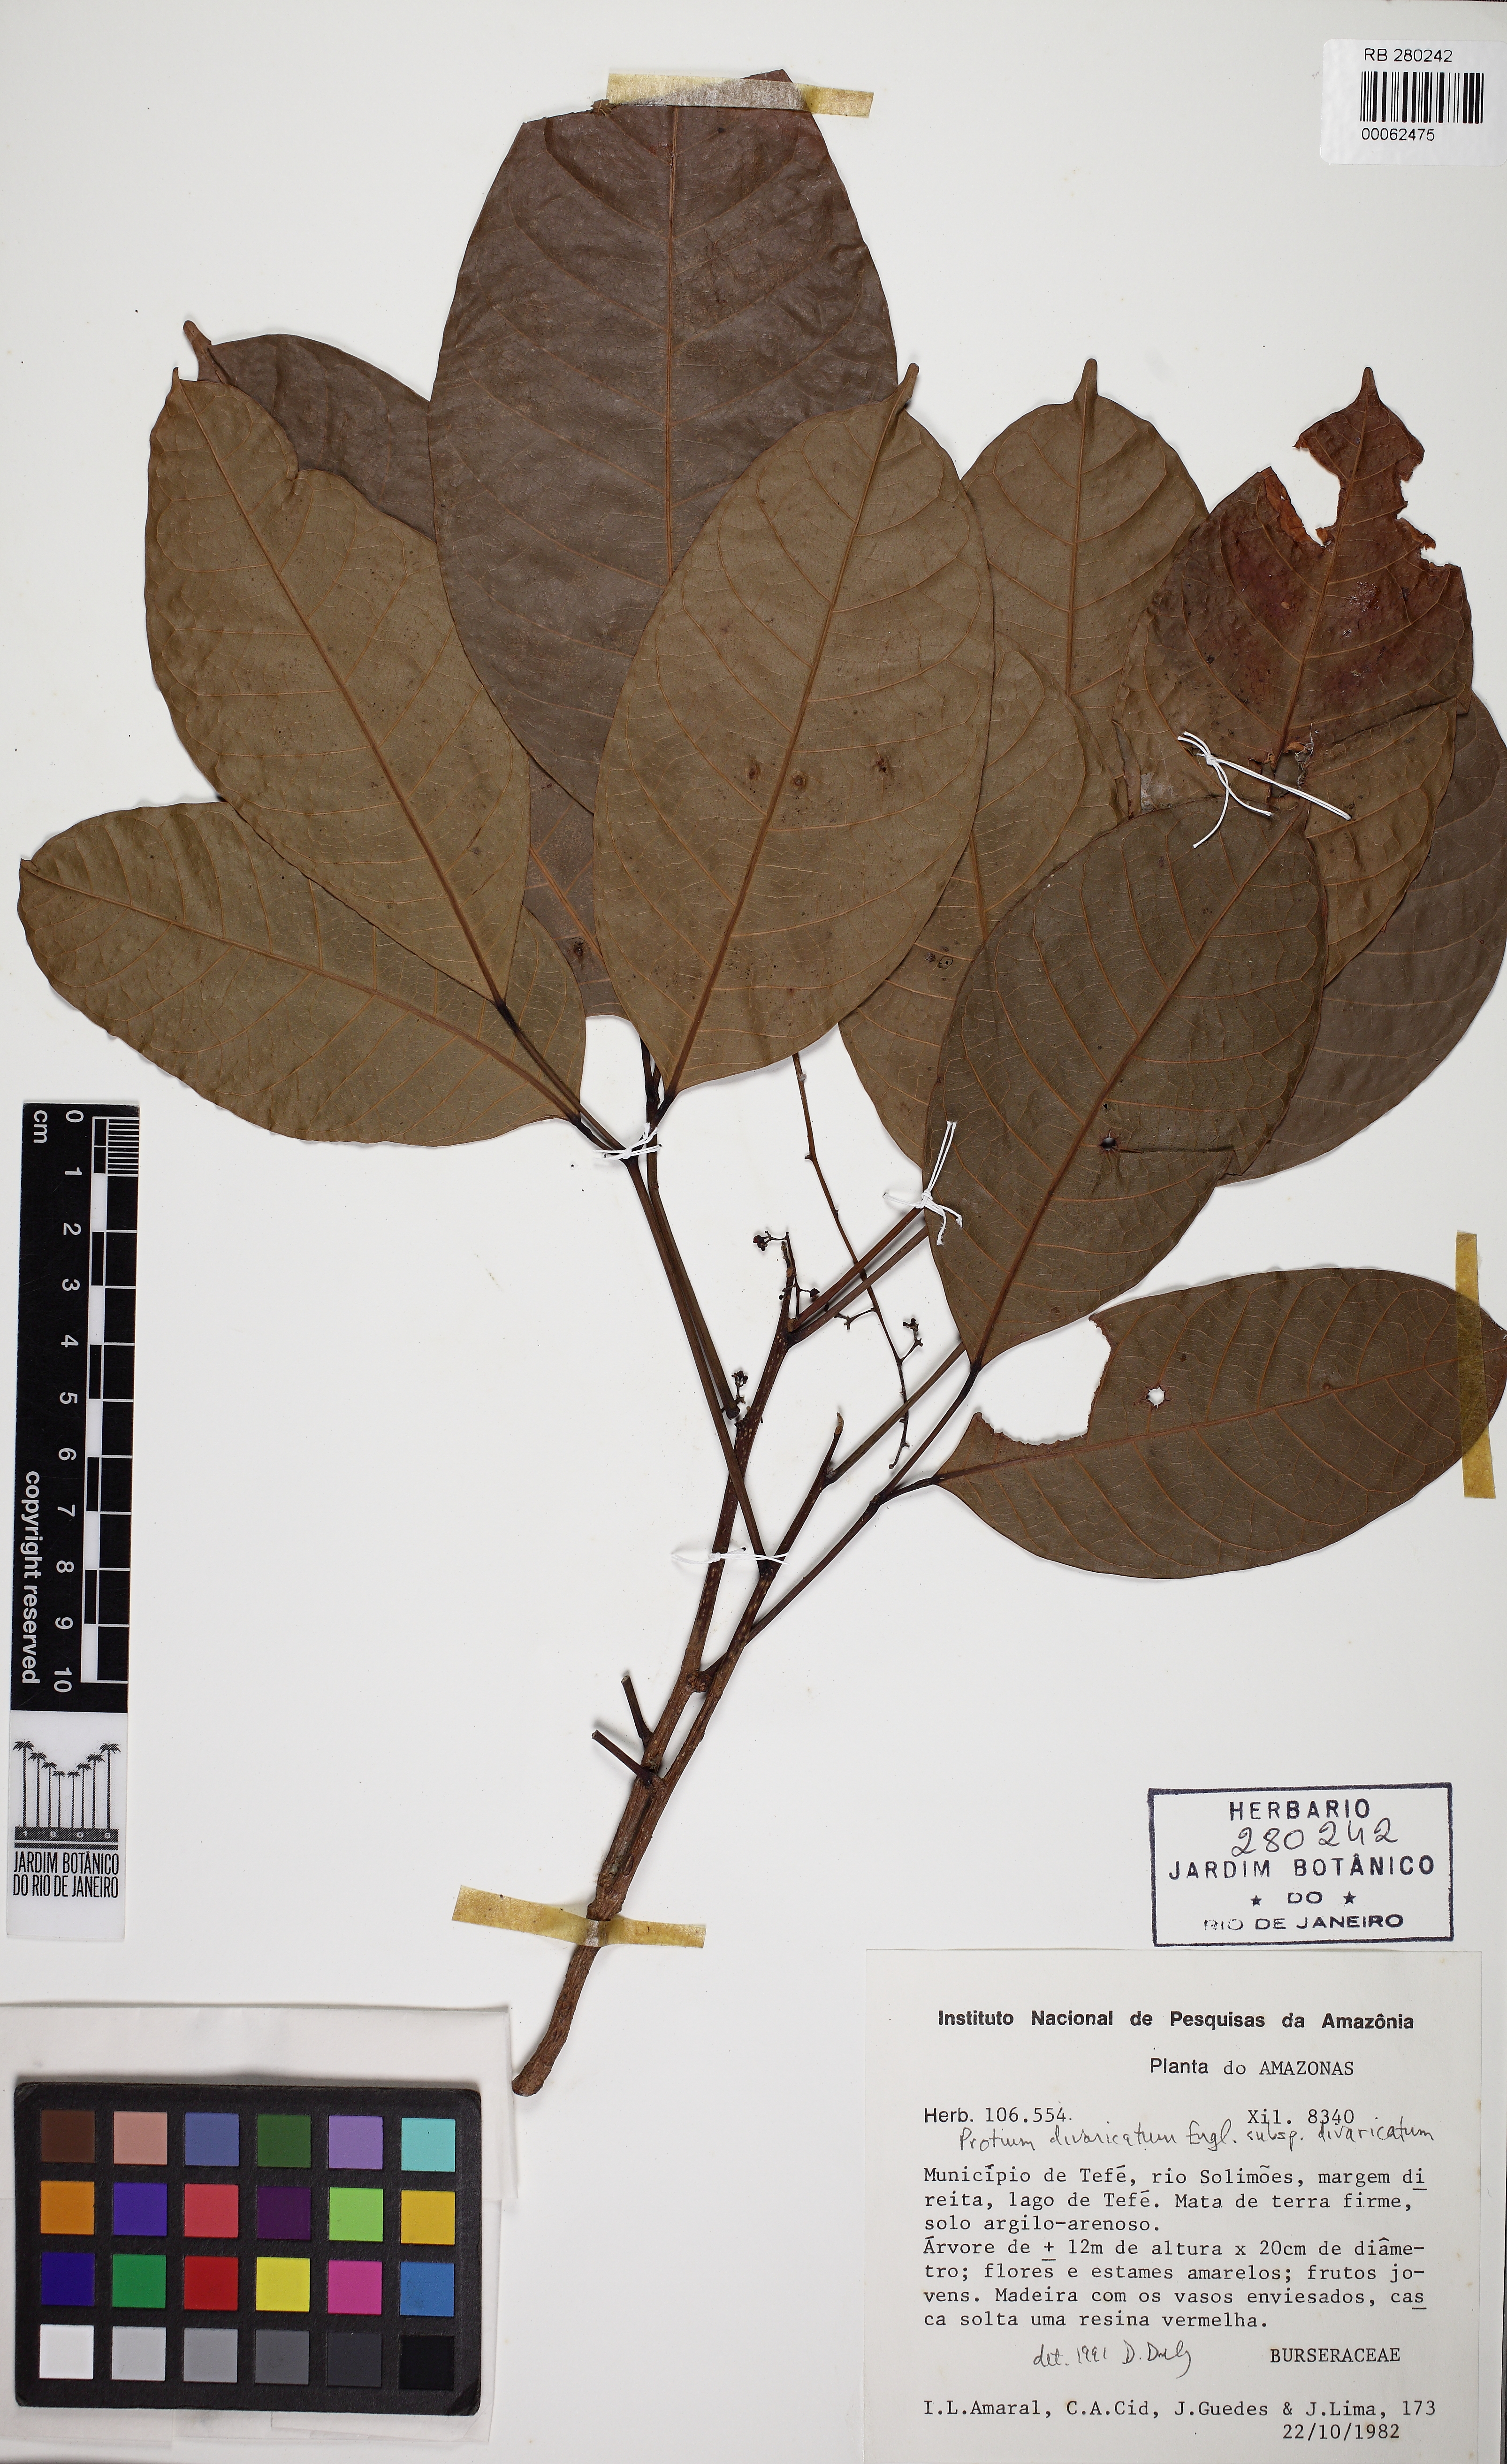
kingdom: Plantae
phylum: Tracheophyta
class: Magnoliopsida
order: Sapindales
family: Burseraceae
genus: Protium
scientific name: Protium divaricatum
